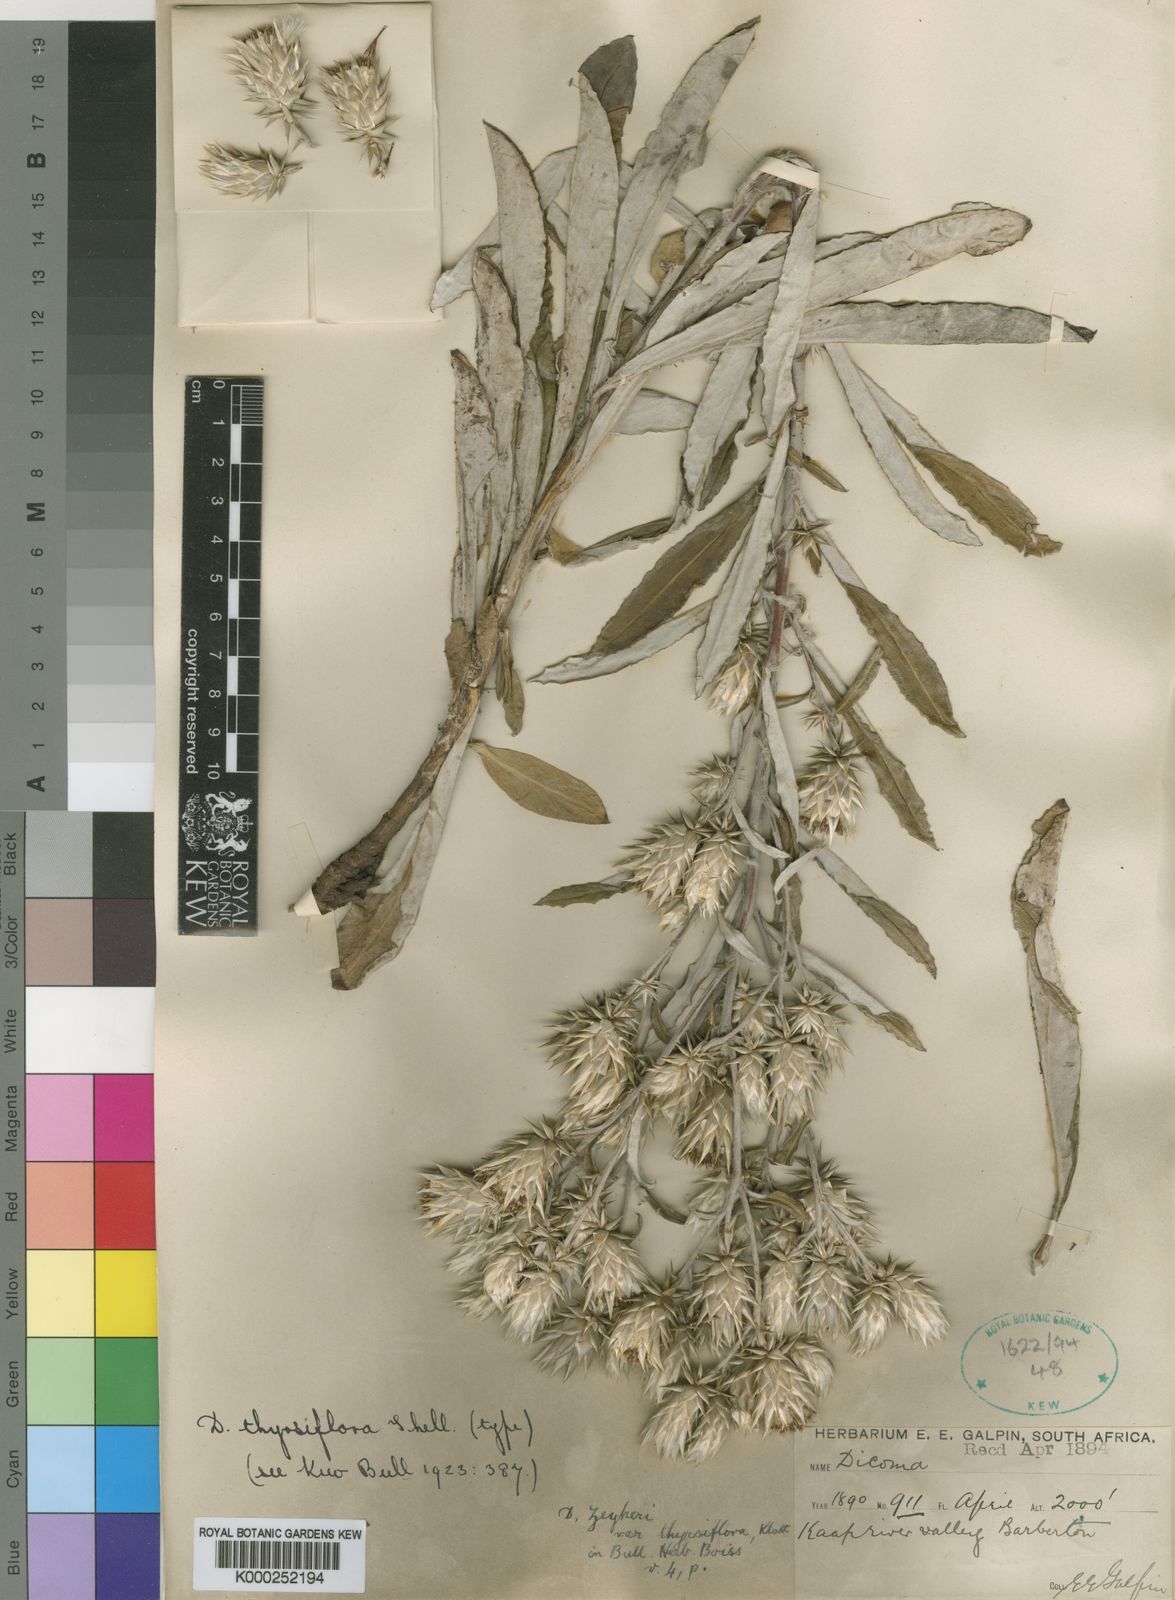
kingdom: Plantae
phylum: Tracheophyta
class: Magnoliopsida
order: Asterales
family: Asteraceae
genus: Macledium
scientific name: Macledium zeyheri
